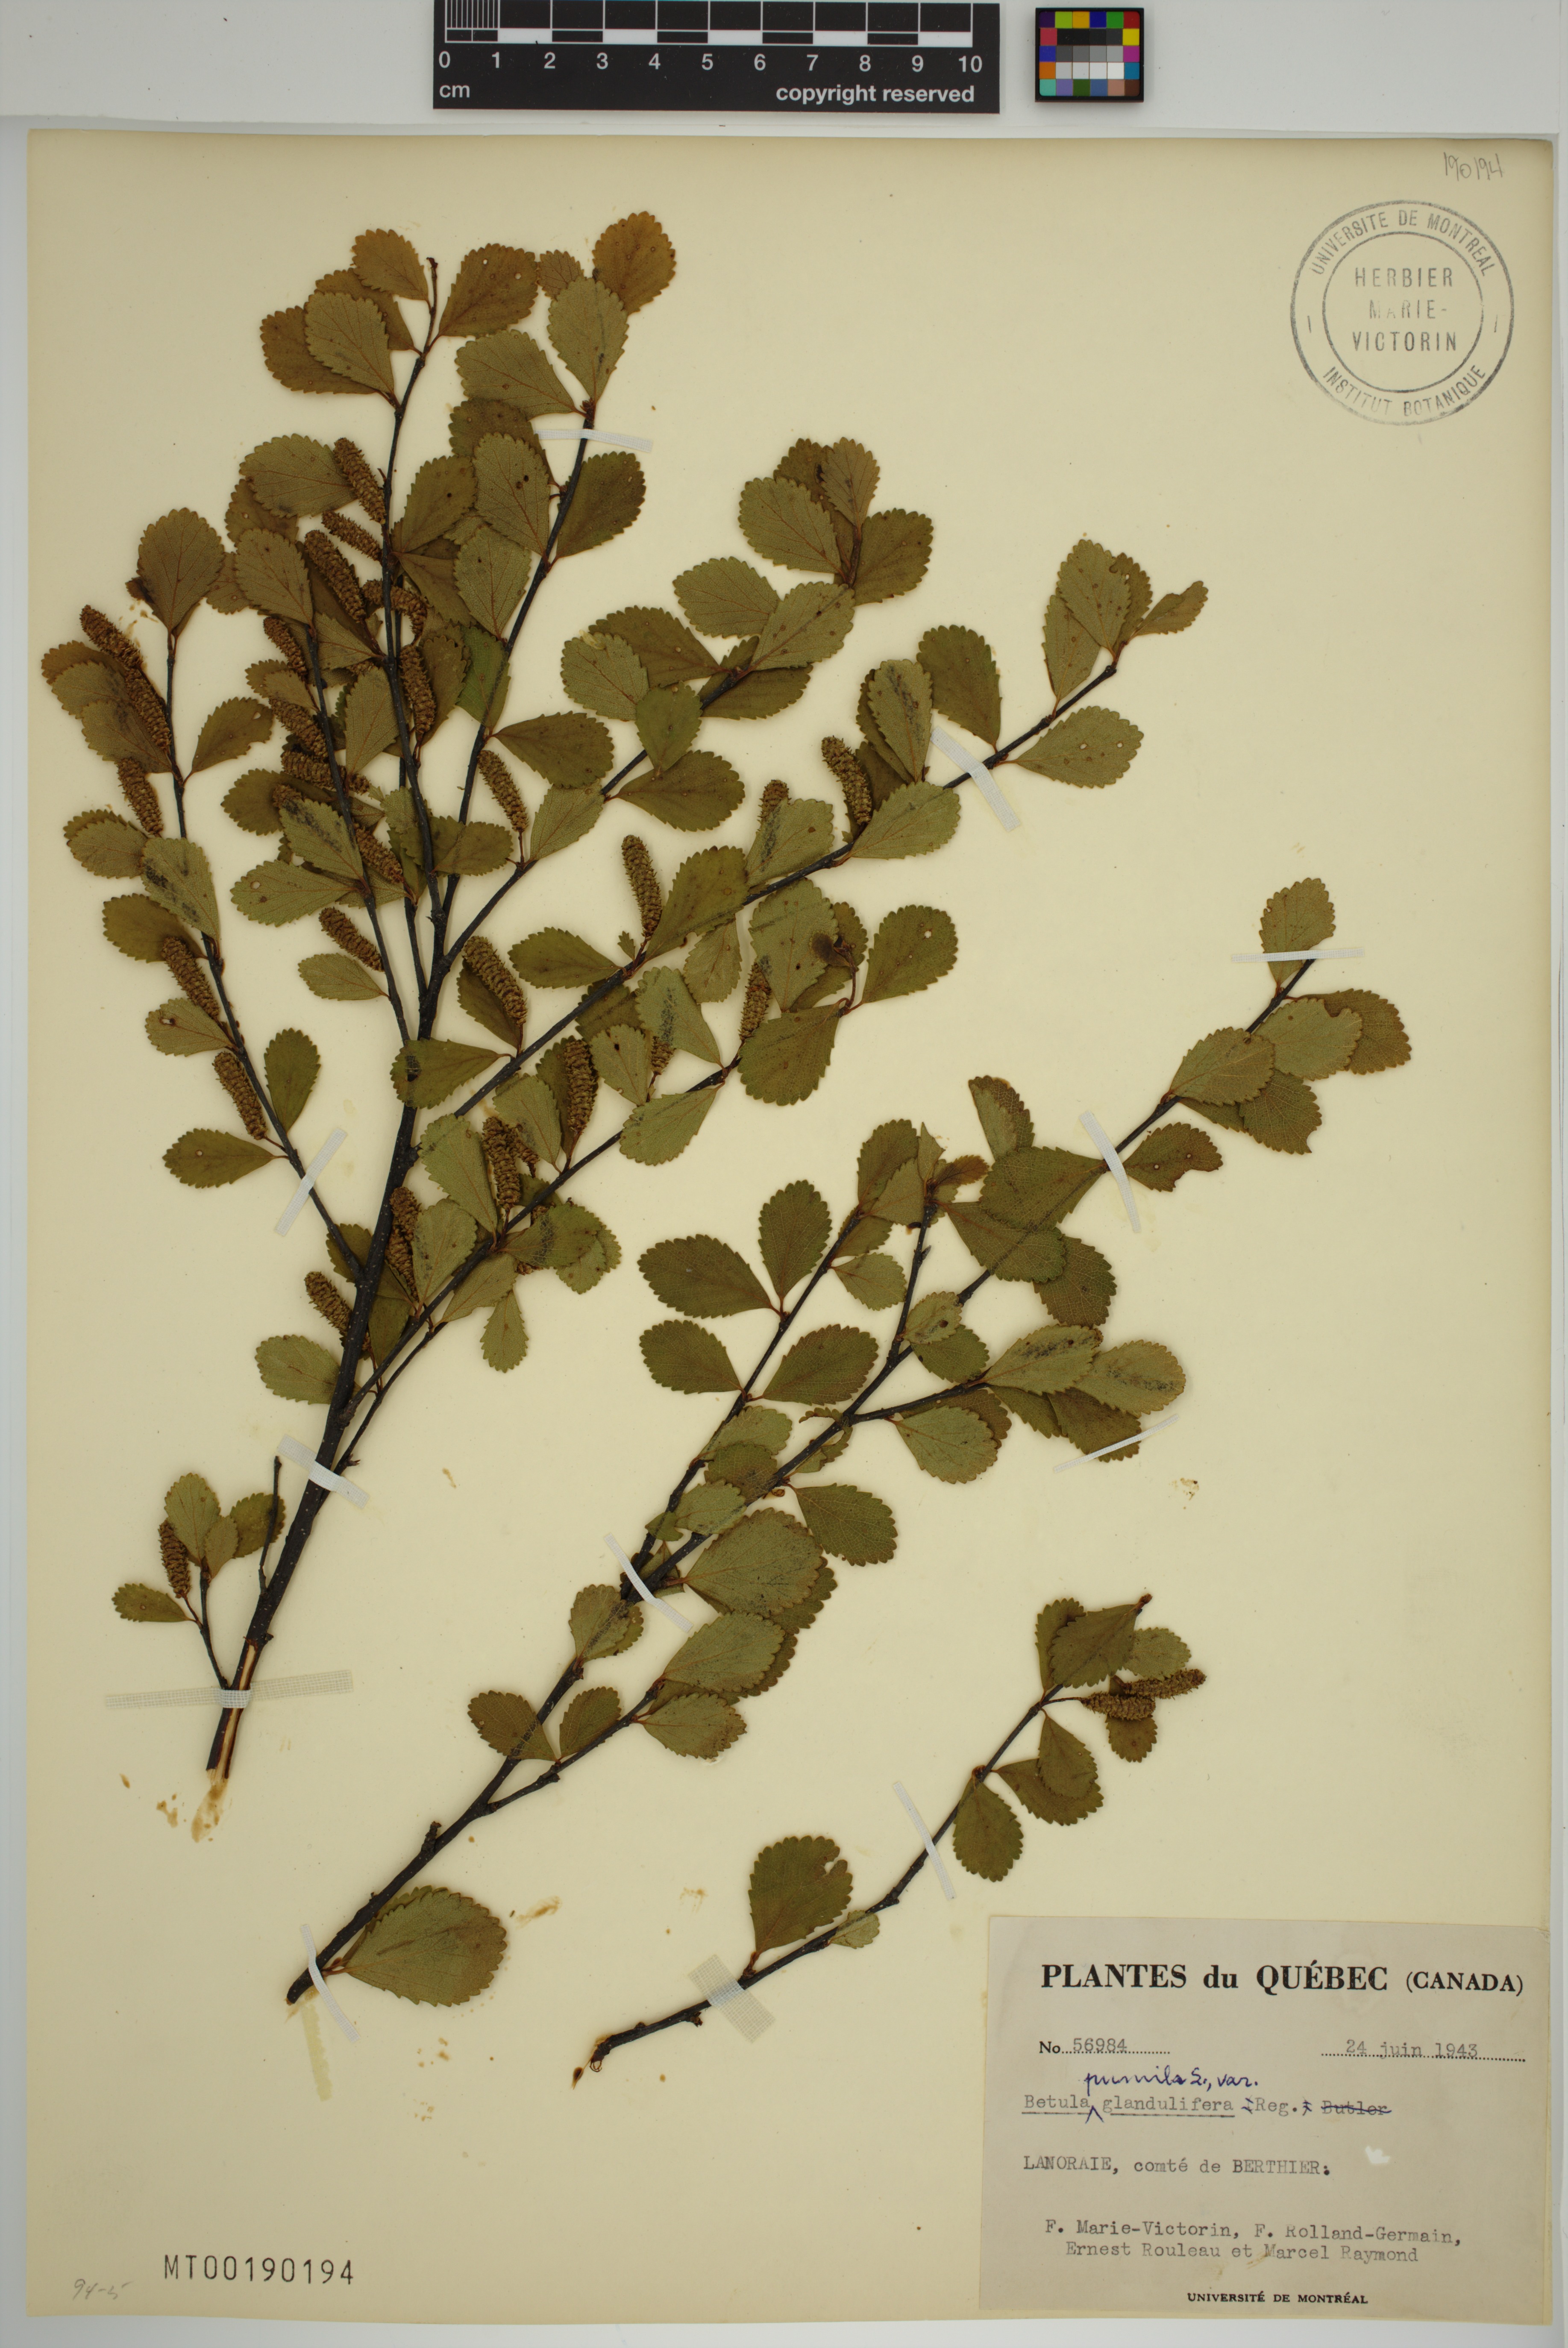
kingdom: Plantae
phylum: Tracheophyta
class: Magnoliopsida
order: Fagales
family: Betulaceae
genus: Betula
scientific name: Betula pumila
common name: Bog birch
